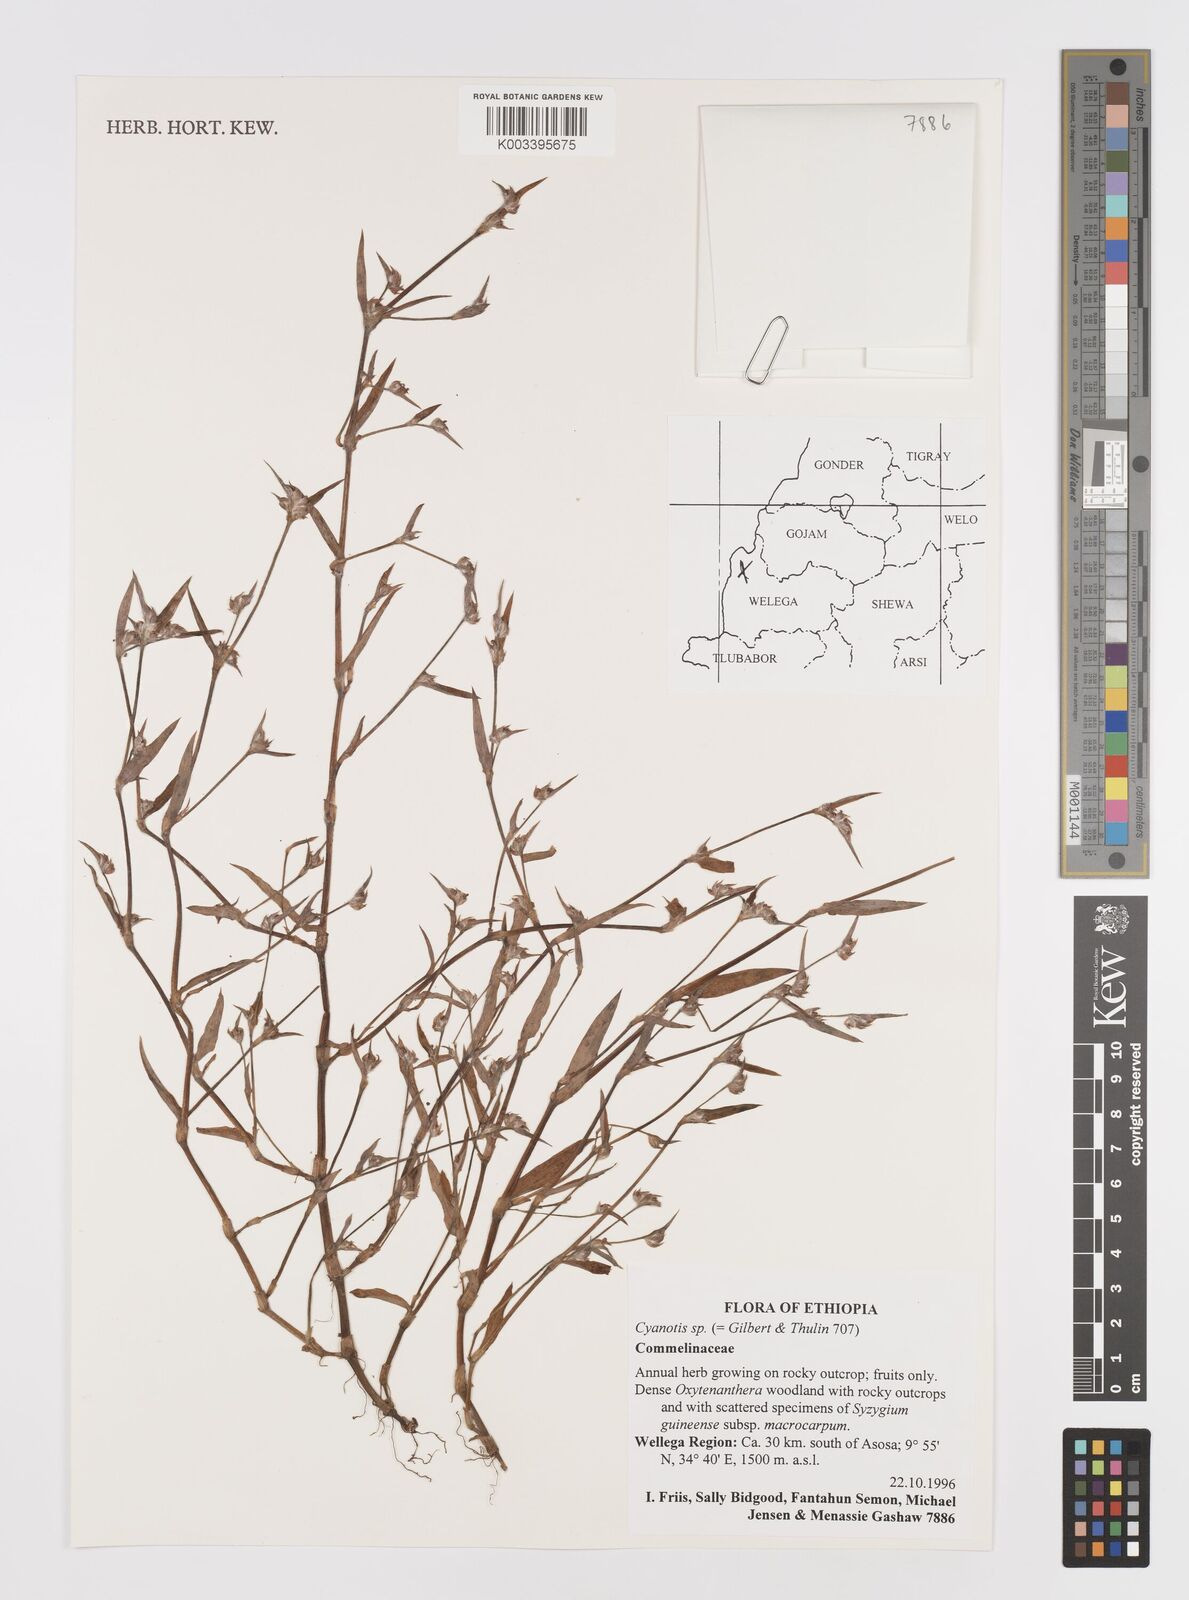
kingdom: Plantae
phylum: Tracheophyta
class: Liliopsida
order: Commelinales
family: Commelinaceae
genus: Cyanotis
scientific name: Cyanotis
